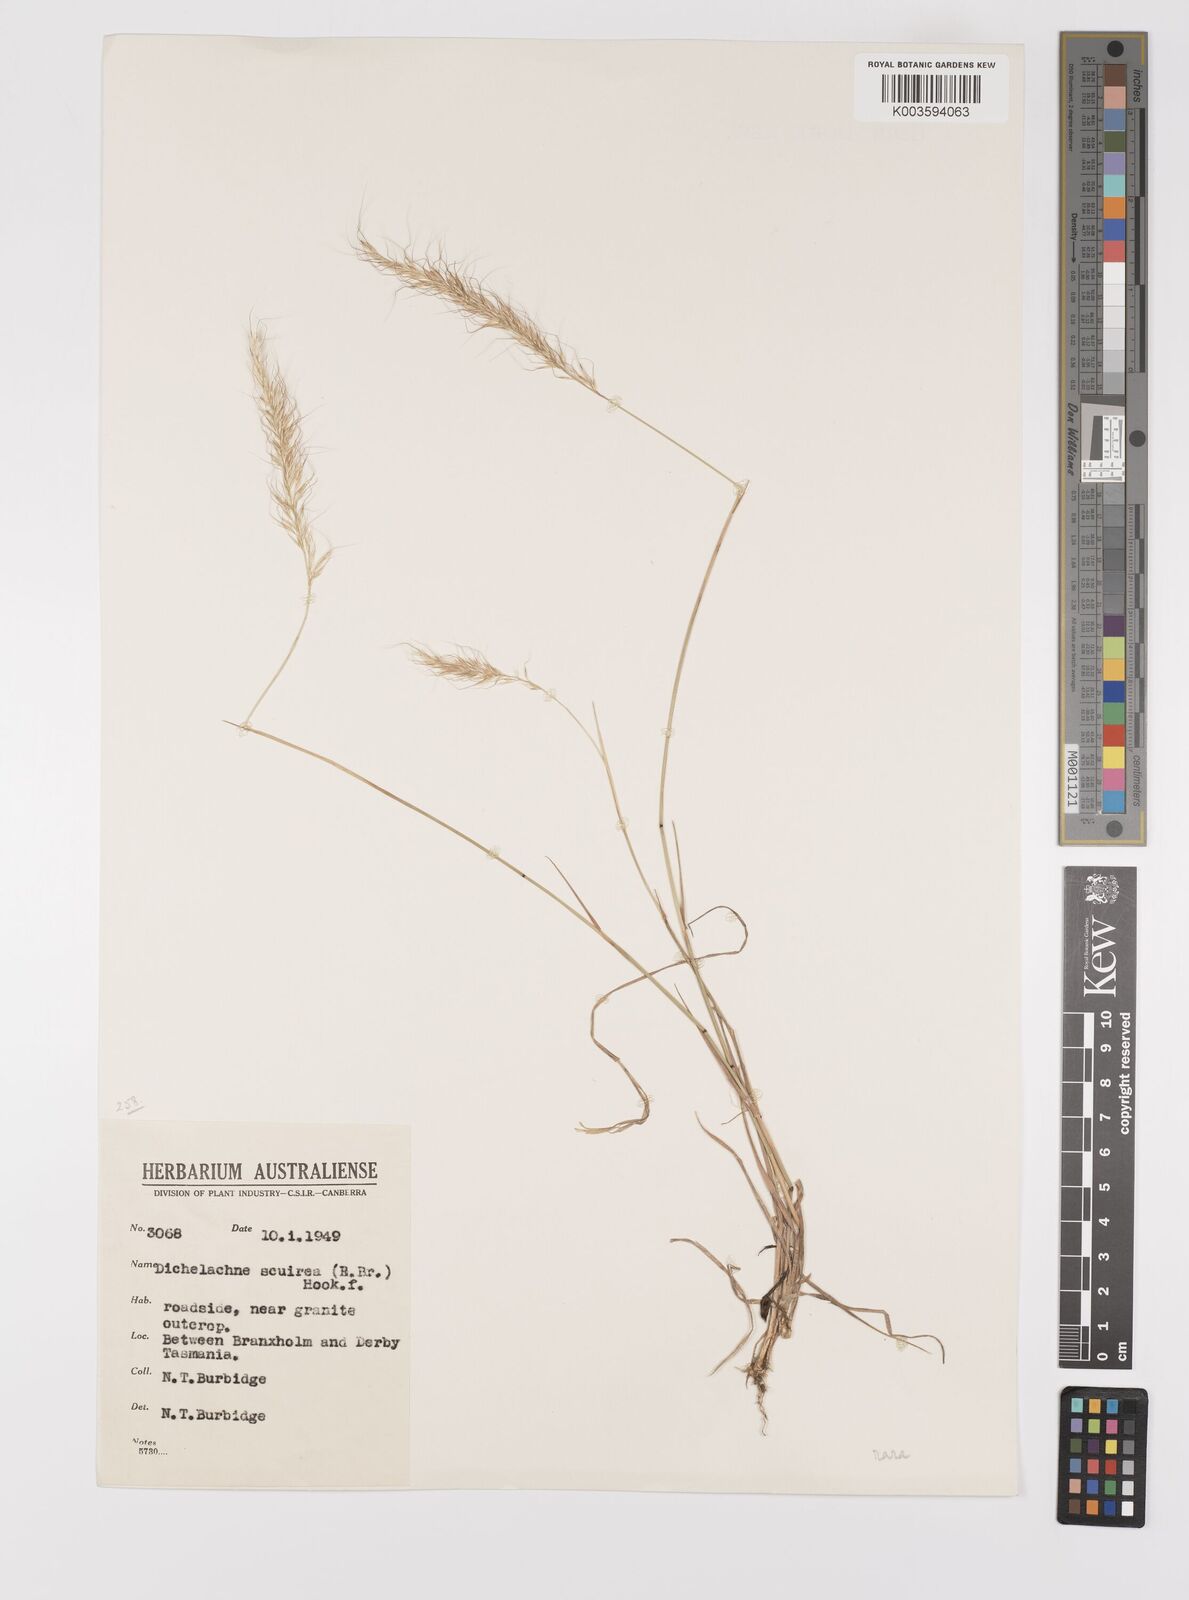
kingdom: Plantae
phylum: Tracheophyta
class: Liliopsida
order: Poales
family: Poaceae
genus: Dichelachne
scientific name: Dichelachne rara
